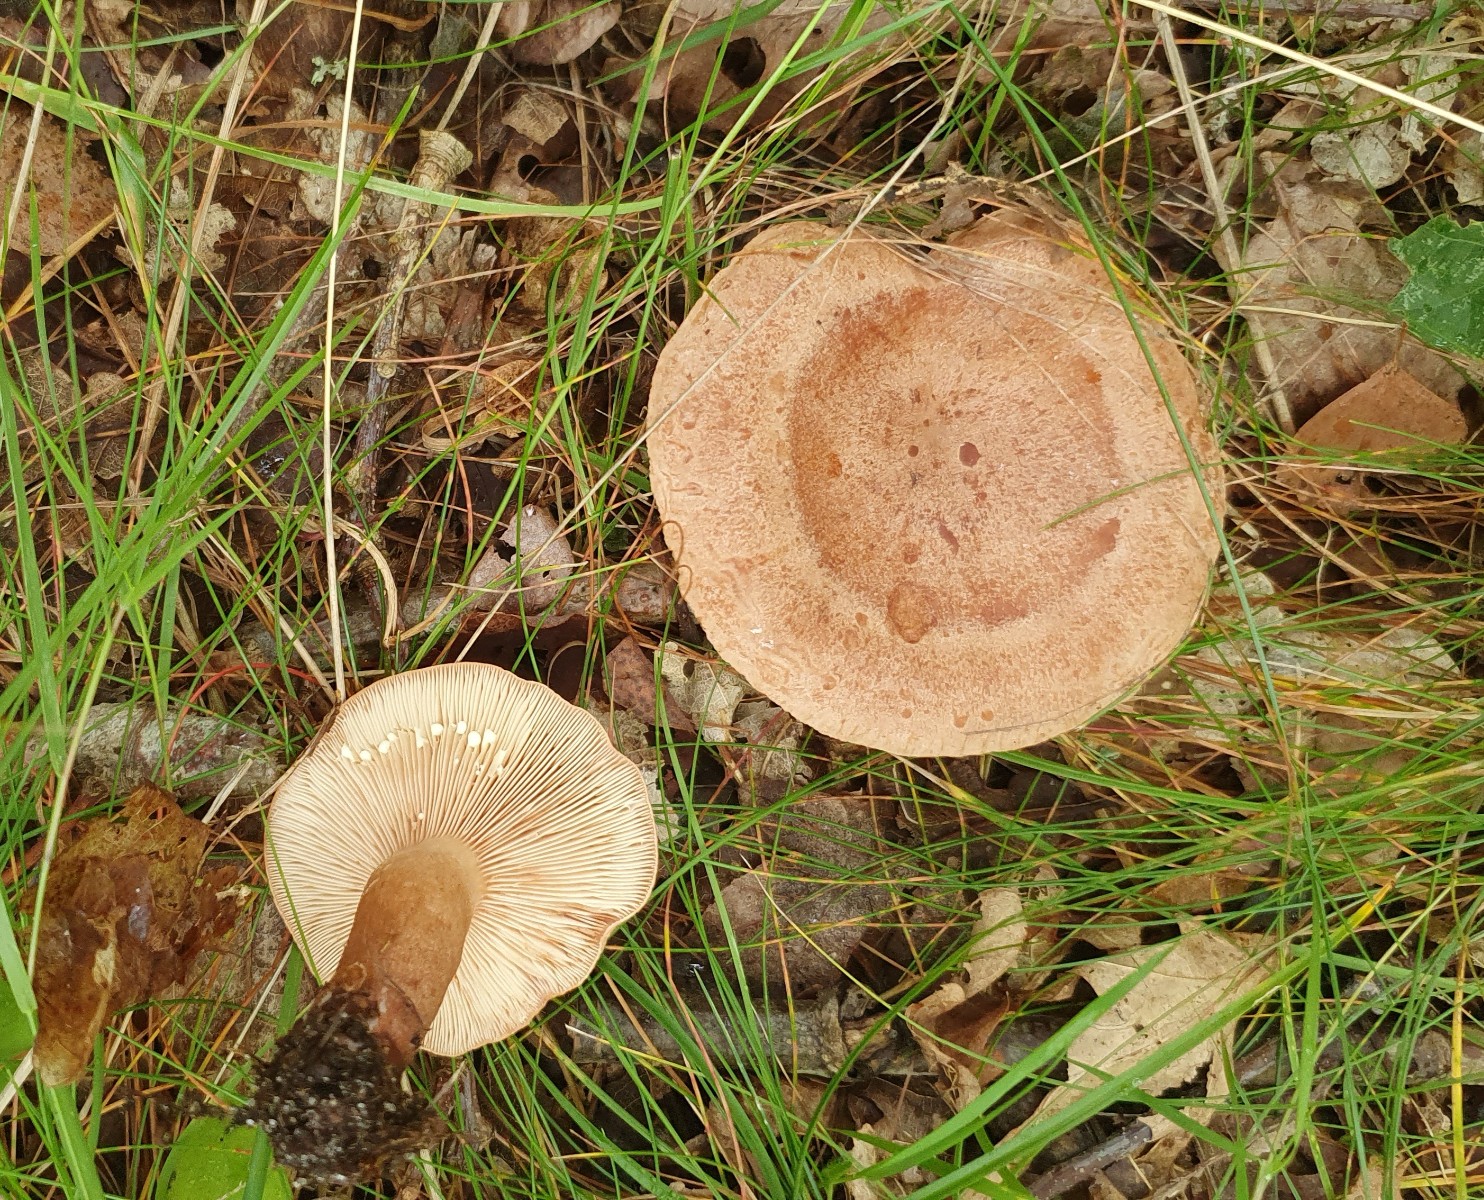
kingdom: Fungi
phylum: Basidiomycota
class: Agaricomycetes
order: Russulales
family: Russulaceae
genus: Lactarius
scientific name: Lactarius quietus
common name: ege-mælkehat
